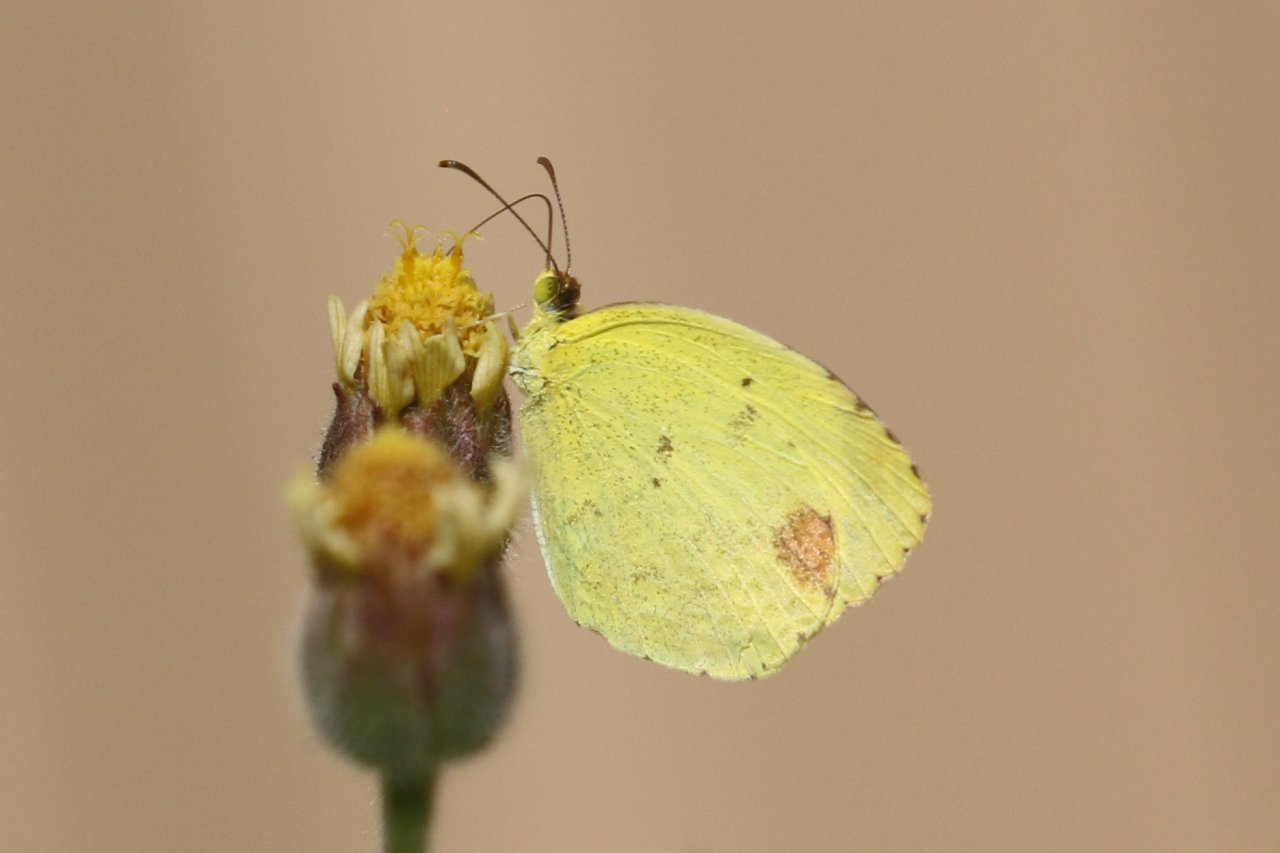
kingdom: Animalia
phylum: Arthropoda
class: Insecta
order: Lepidoptera
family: Pieridae
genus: Pyrisitia
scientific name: Pyrisitia nise
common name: Mimosa Yellow
